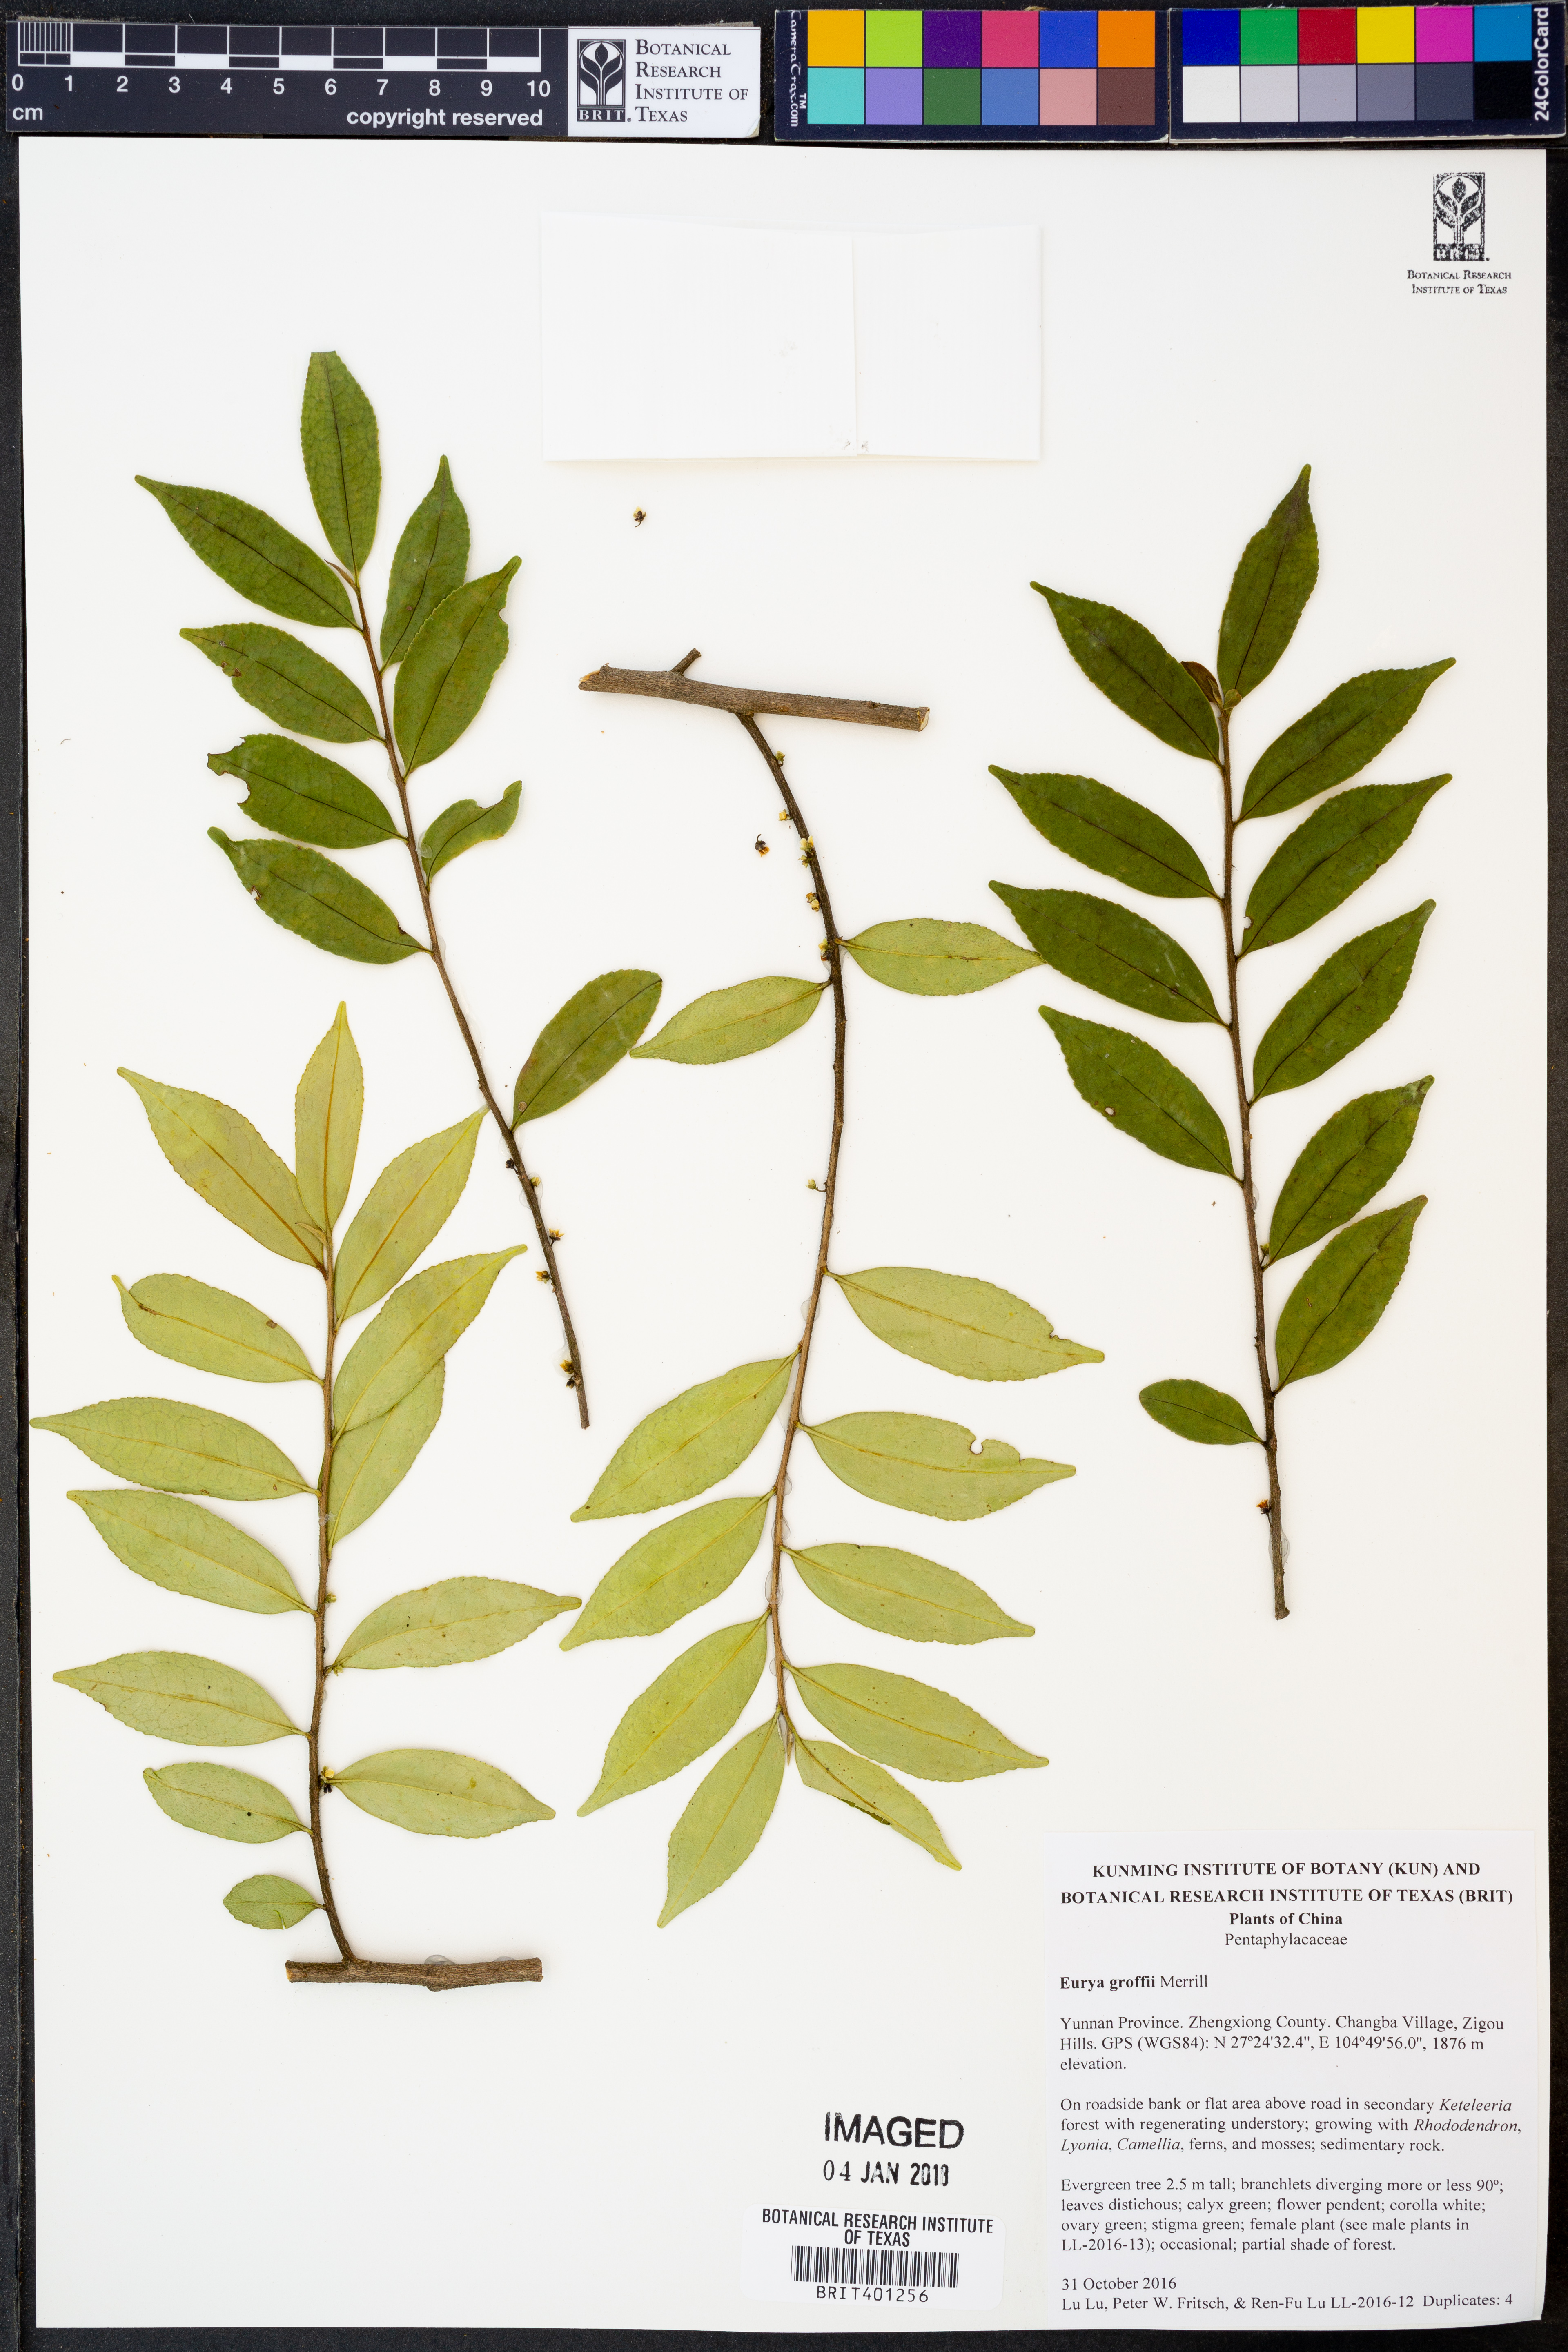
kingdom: Plantae
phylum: Tracheophyta
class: Magnoliopsida
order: Ericales
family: Pentaphylacaceae
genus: Eurya
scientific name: Eurya groffii
